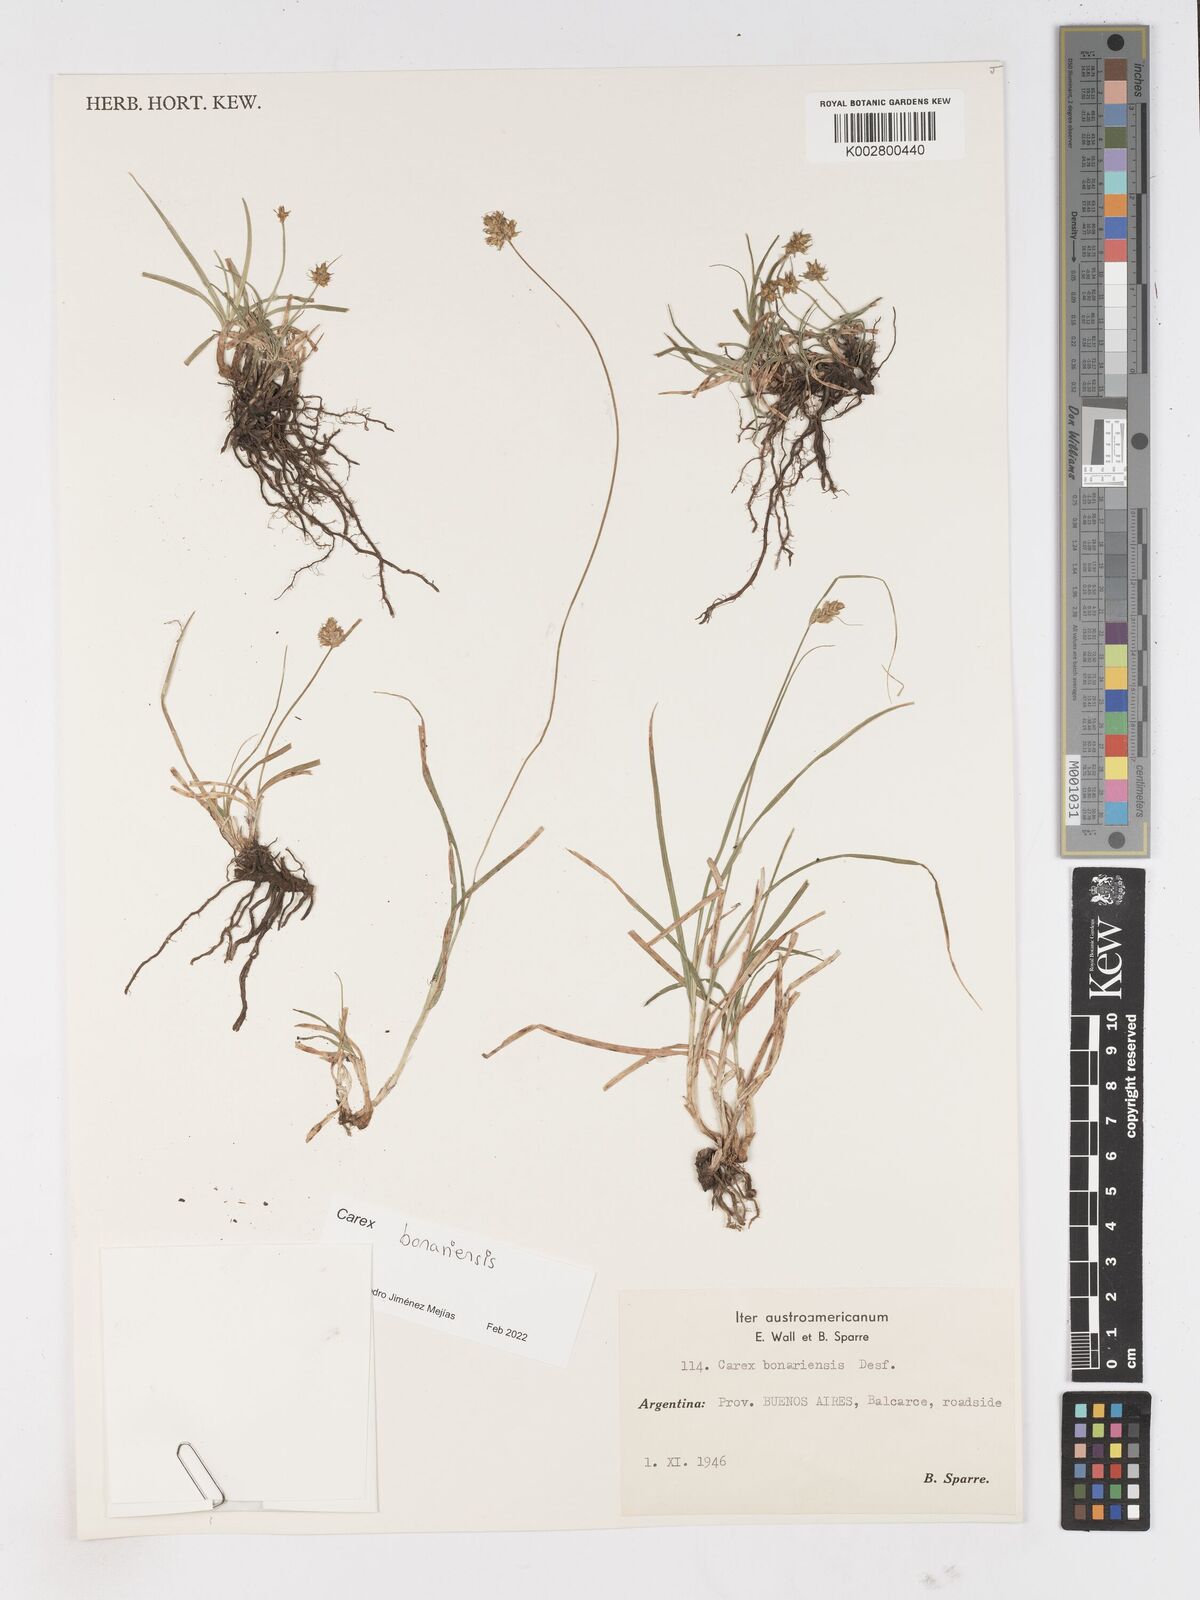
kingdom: Plantae
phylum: Tracheophyta
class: Liliopsida
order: Poales
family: Cyperaceae
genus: Carex
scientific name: Carex bonariensis
